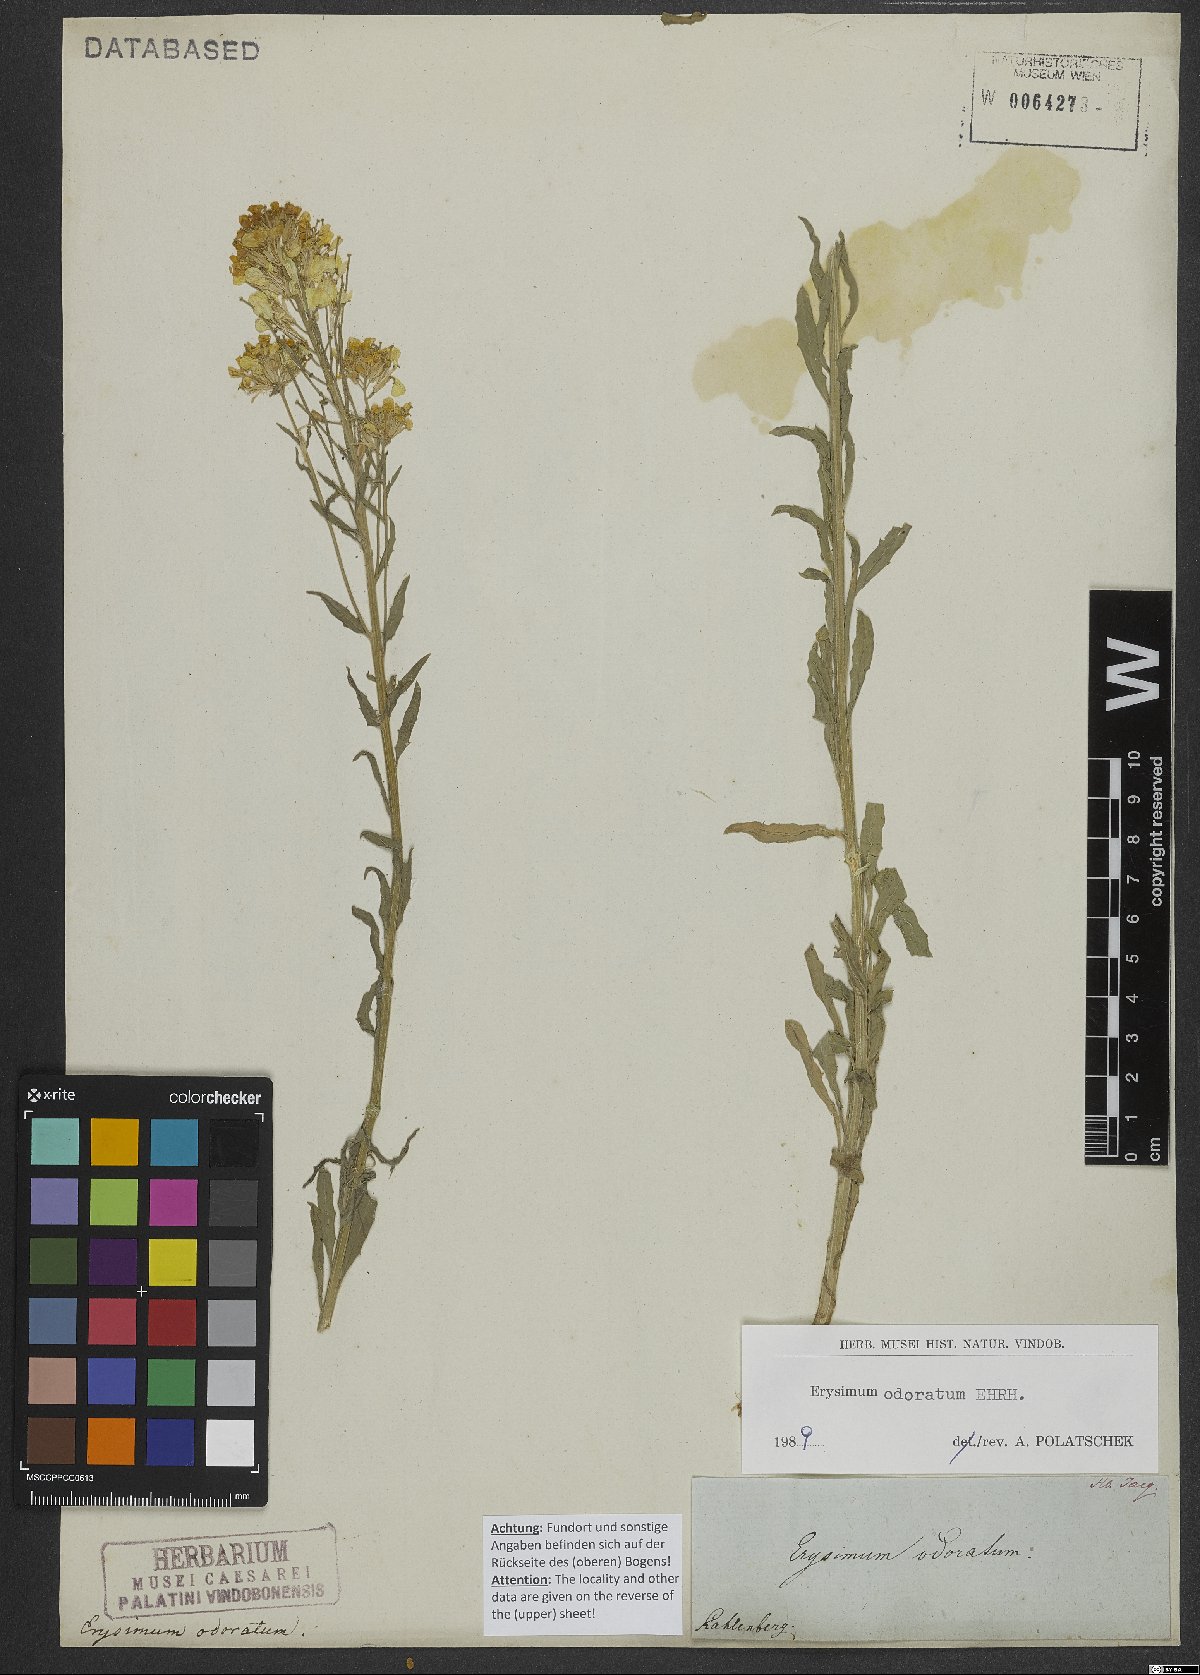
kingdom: Plantae
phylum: Tracheophyta
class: Magnoliopsida
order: Brassicales
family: Brassicaceae
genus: Erysimum
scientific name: Erysimum odoratum
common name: Smelly wallflower
